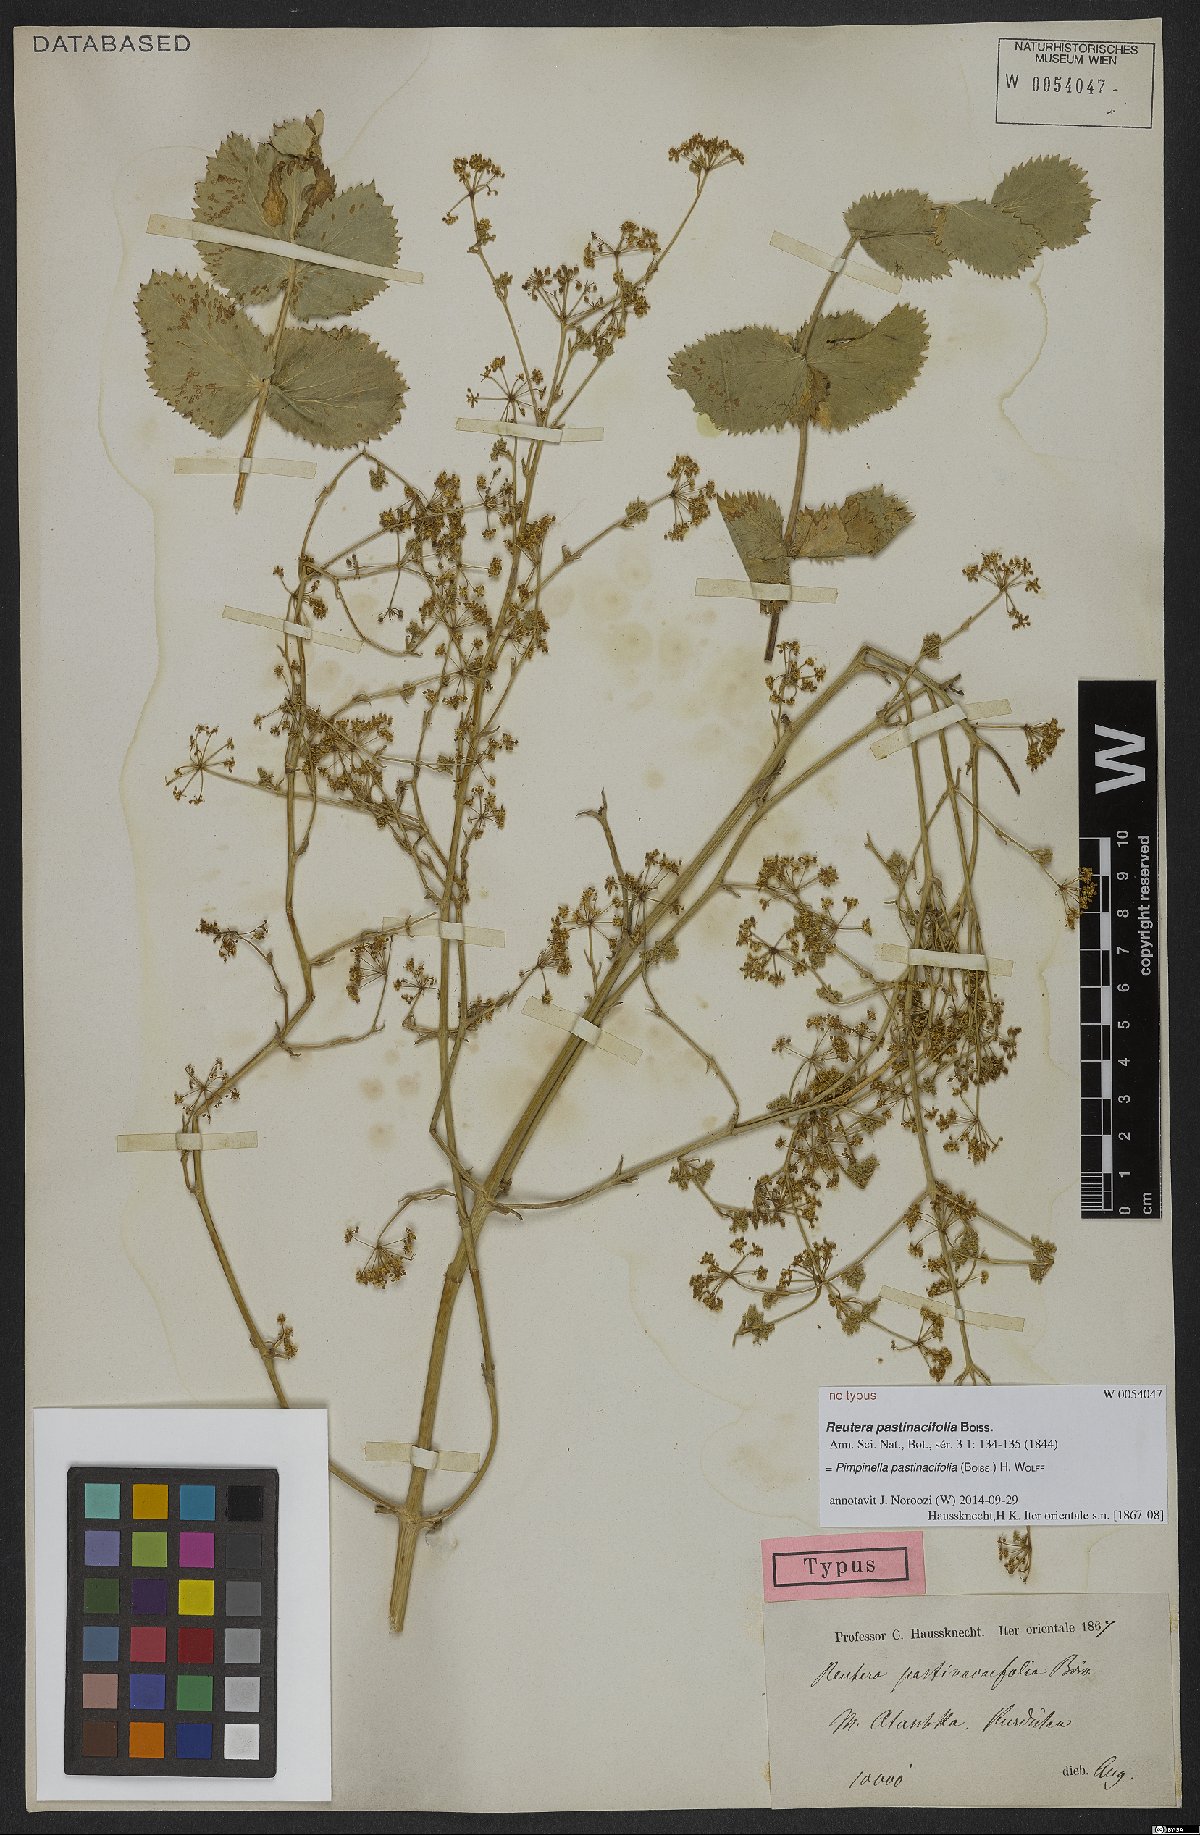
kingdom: Plantae
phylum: Tracheophyta
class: Magnoliopsida
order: Apiales
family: Apiaceae
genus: Pimpinella
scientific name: Pimpinella pastinacifolia
